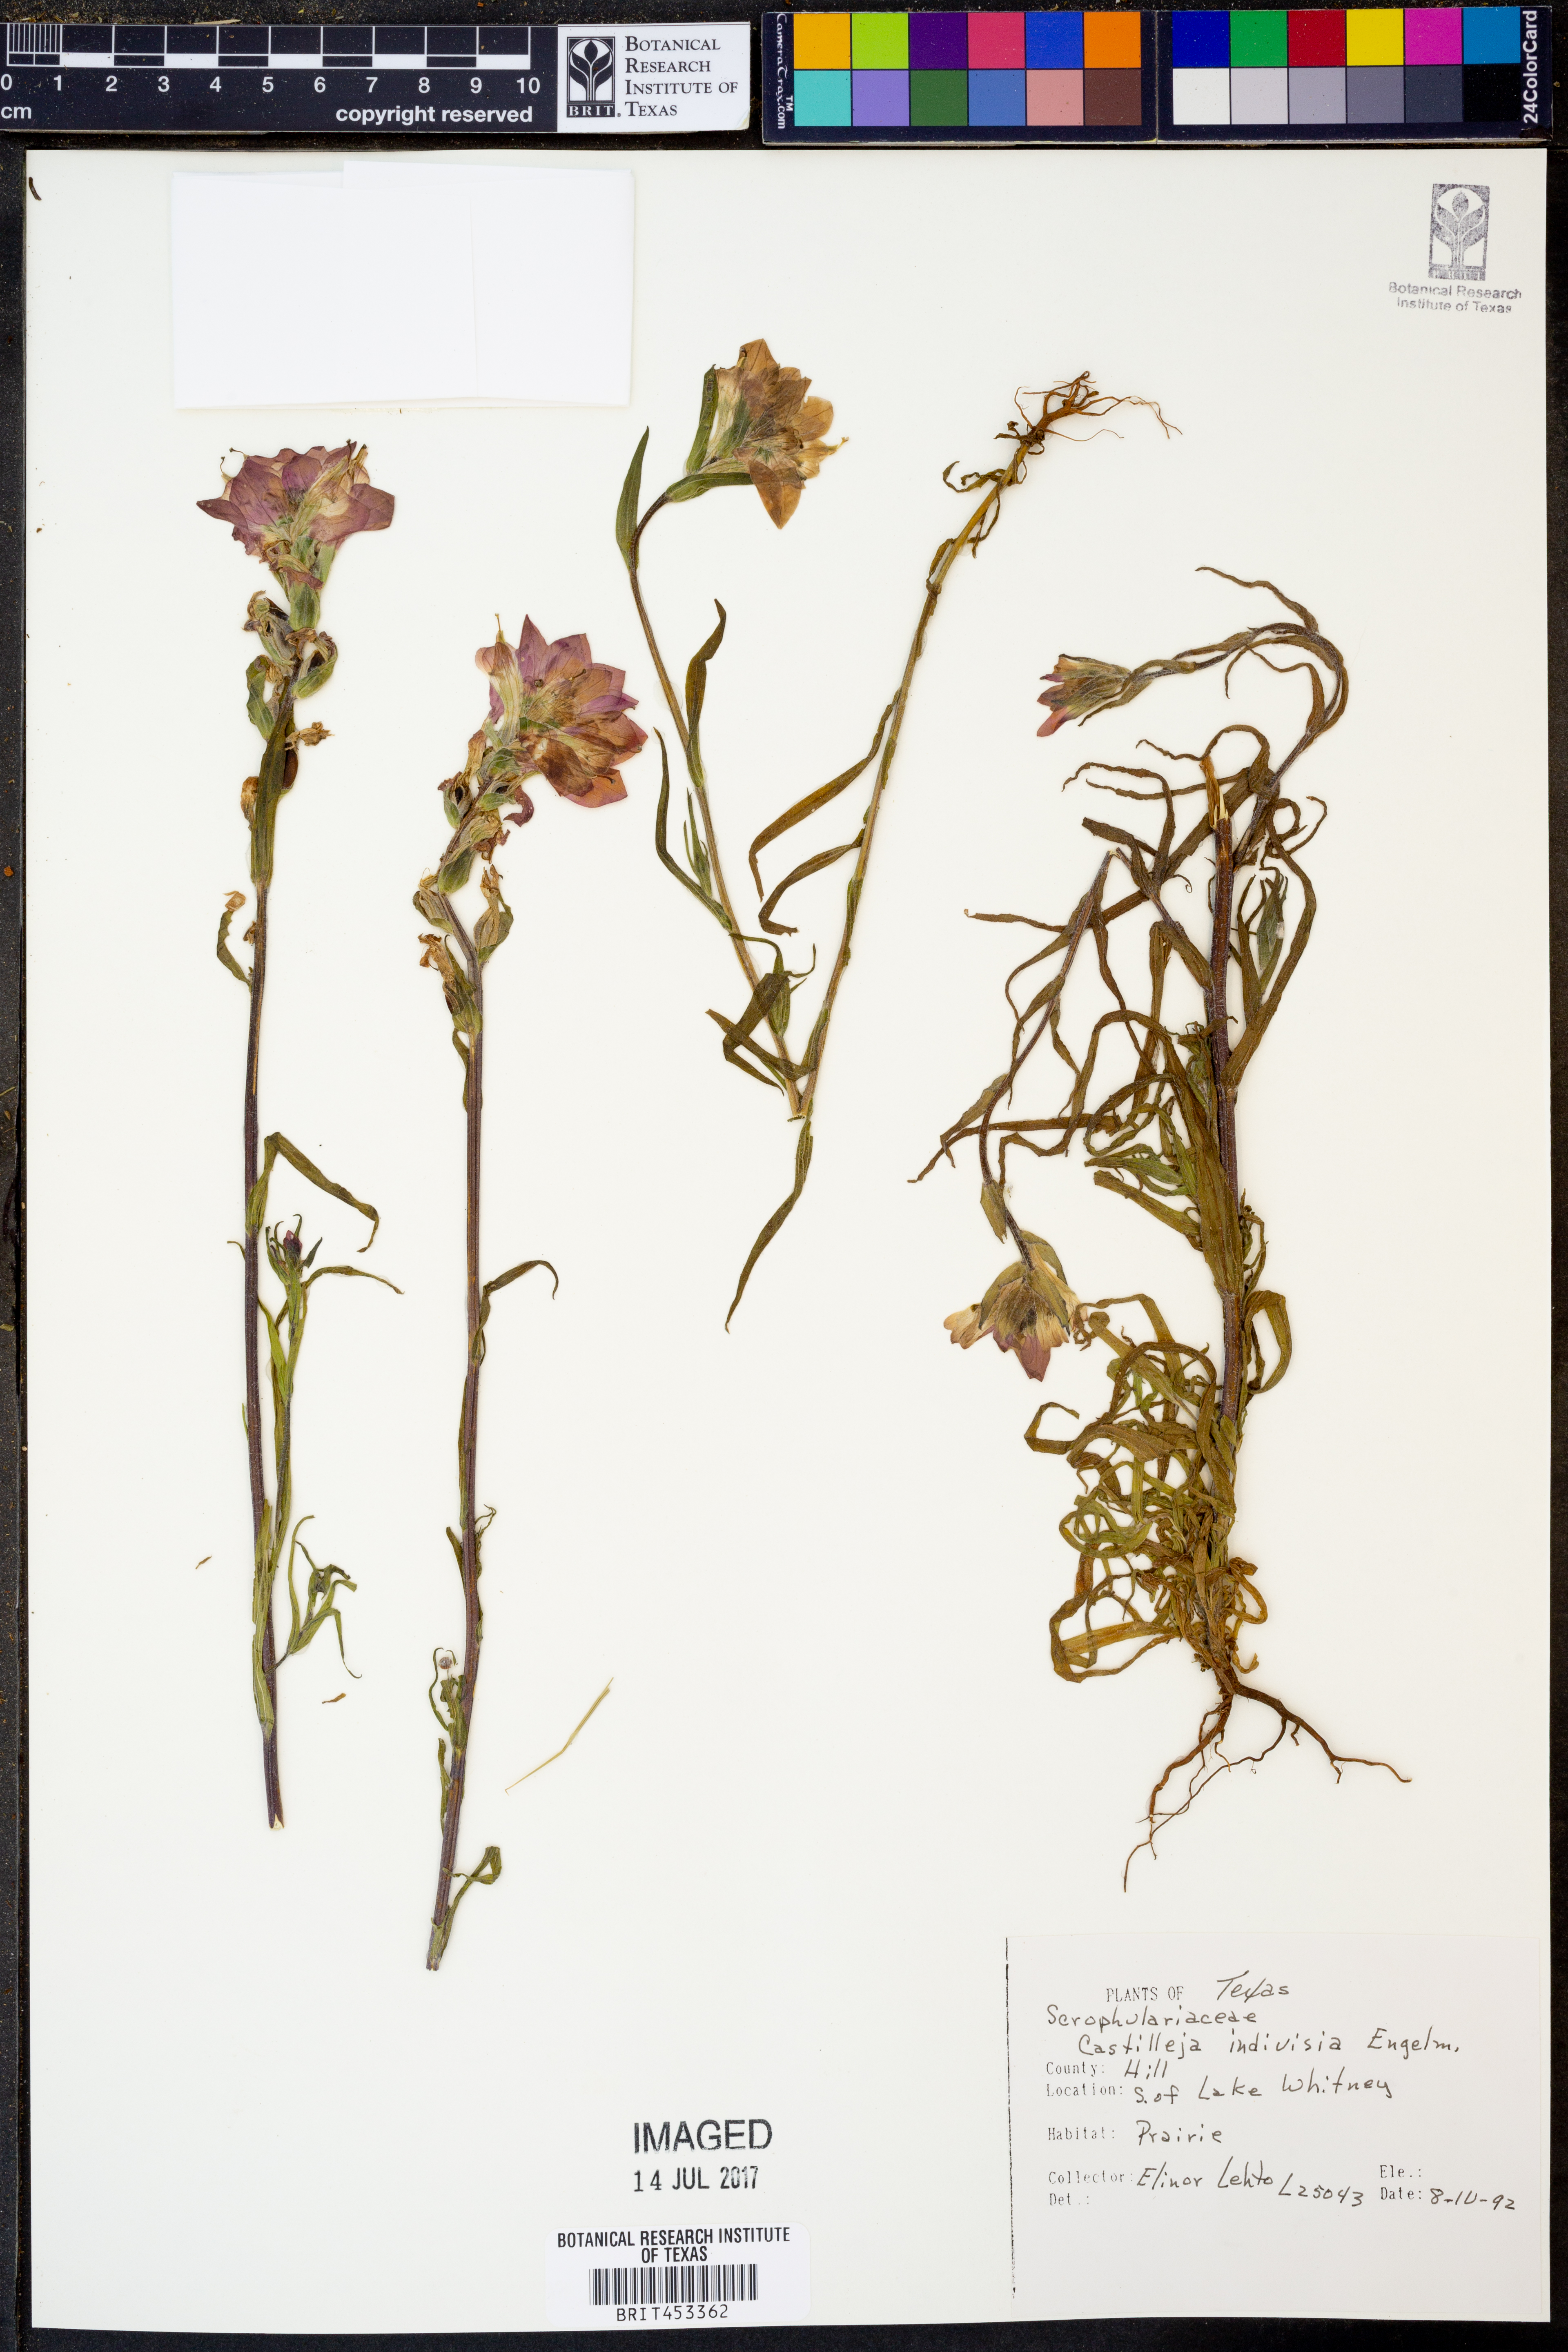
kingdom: Plantae
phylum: Tracheophyta
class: Magnoliopsida
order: Lamiales
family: Orobanchaceae
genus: Castilleja
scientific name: Castilleja indivisa
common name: Texas paintbrush
